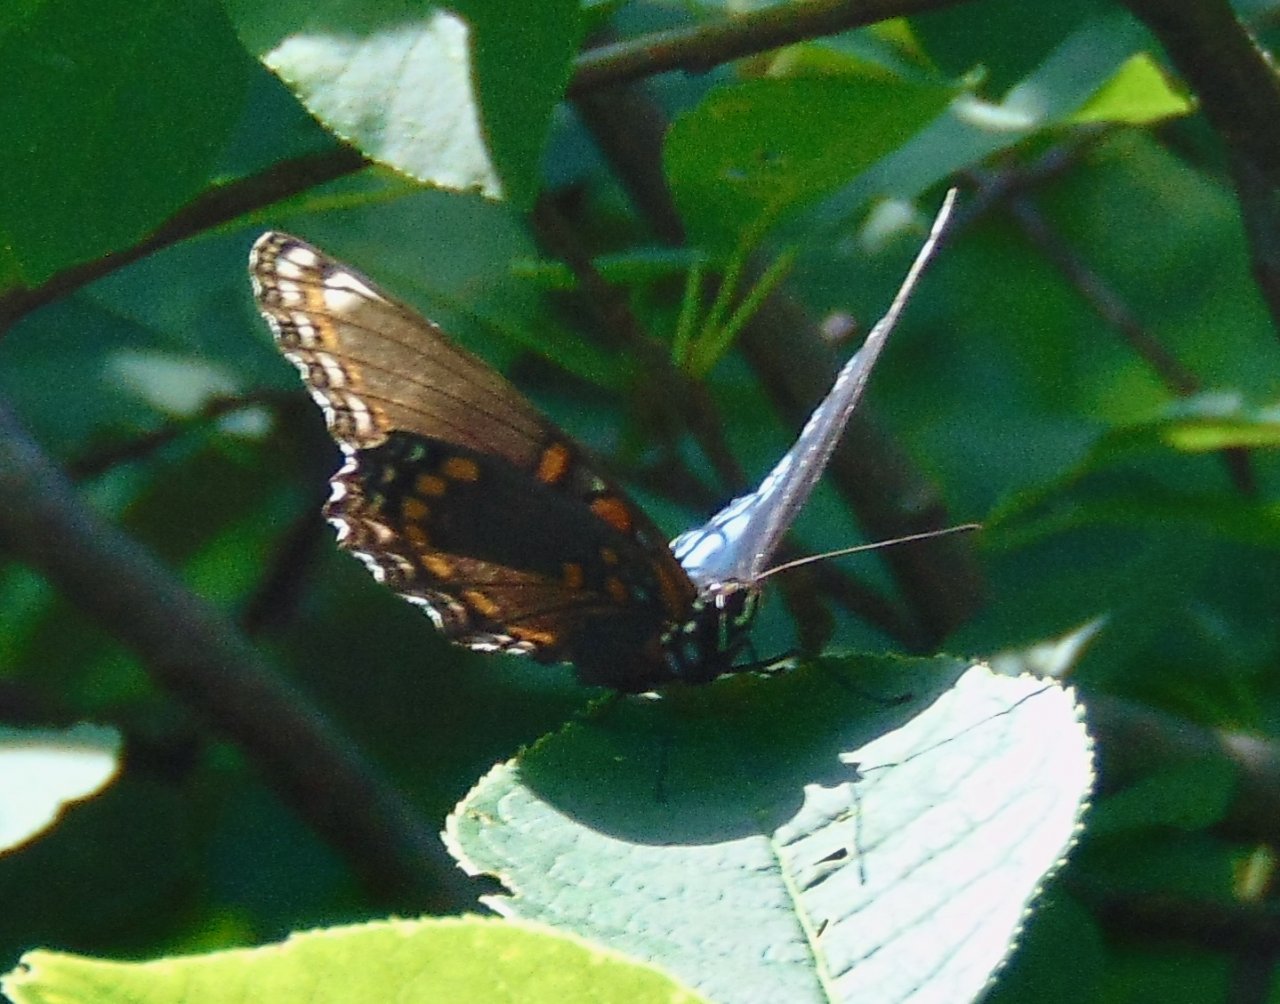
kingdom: Animalia
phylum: Arthropoda
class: Insecta
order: Lepidoptera
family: Nymphalidae
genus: Limenitis
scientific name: Limenitis astyanax
